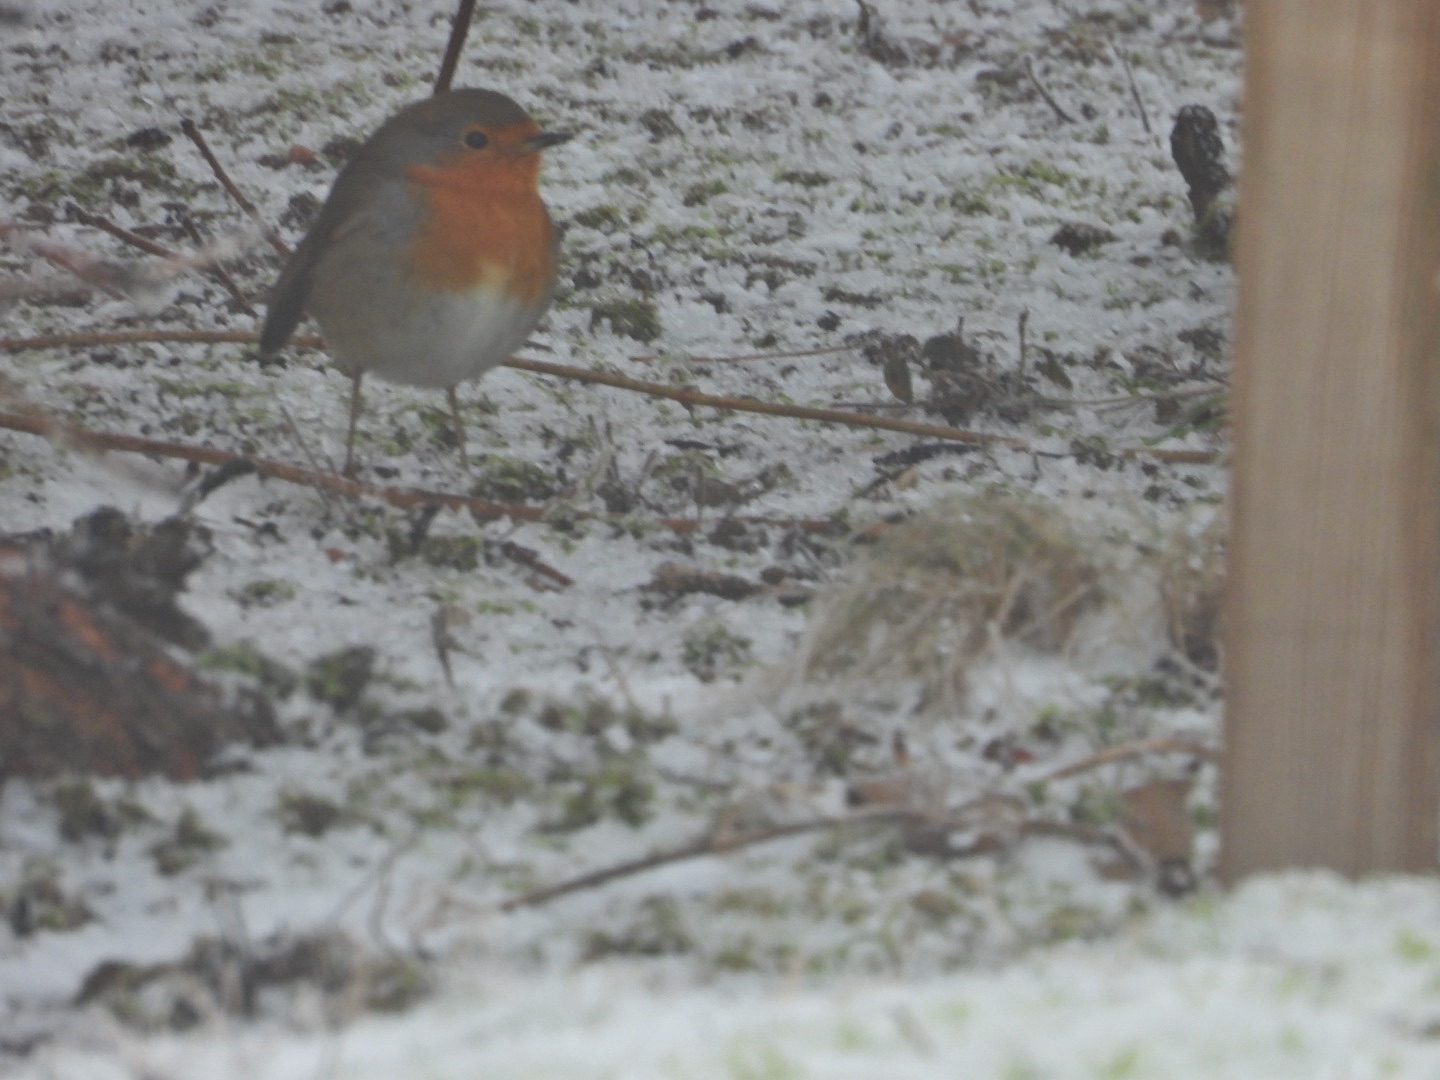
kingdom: Animalia
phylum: Chordata
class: Aves
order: Passeriformes
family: Muscicapidae
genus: Erithacus
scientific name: Erithacus rubecula
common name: Rødhals/rødkælk
